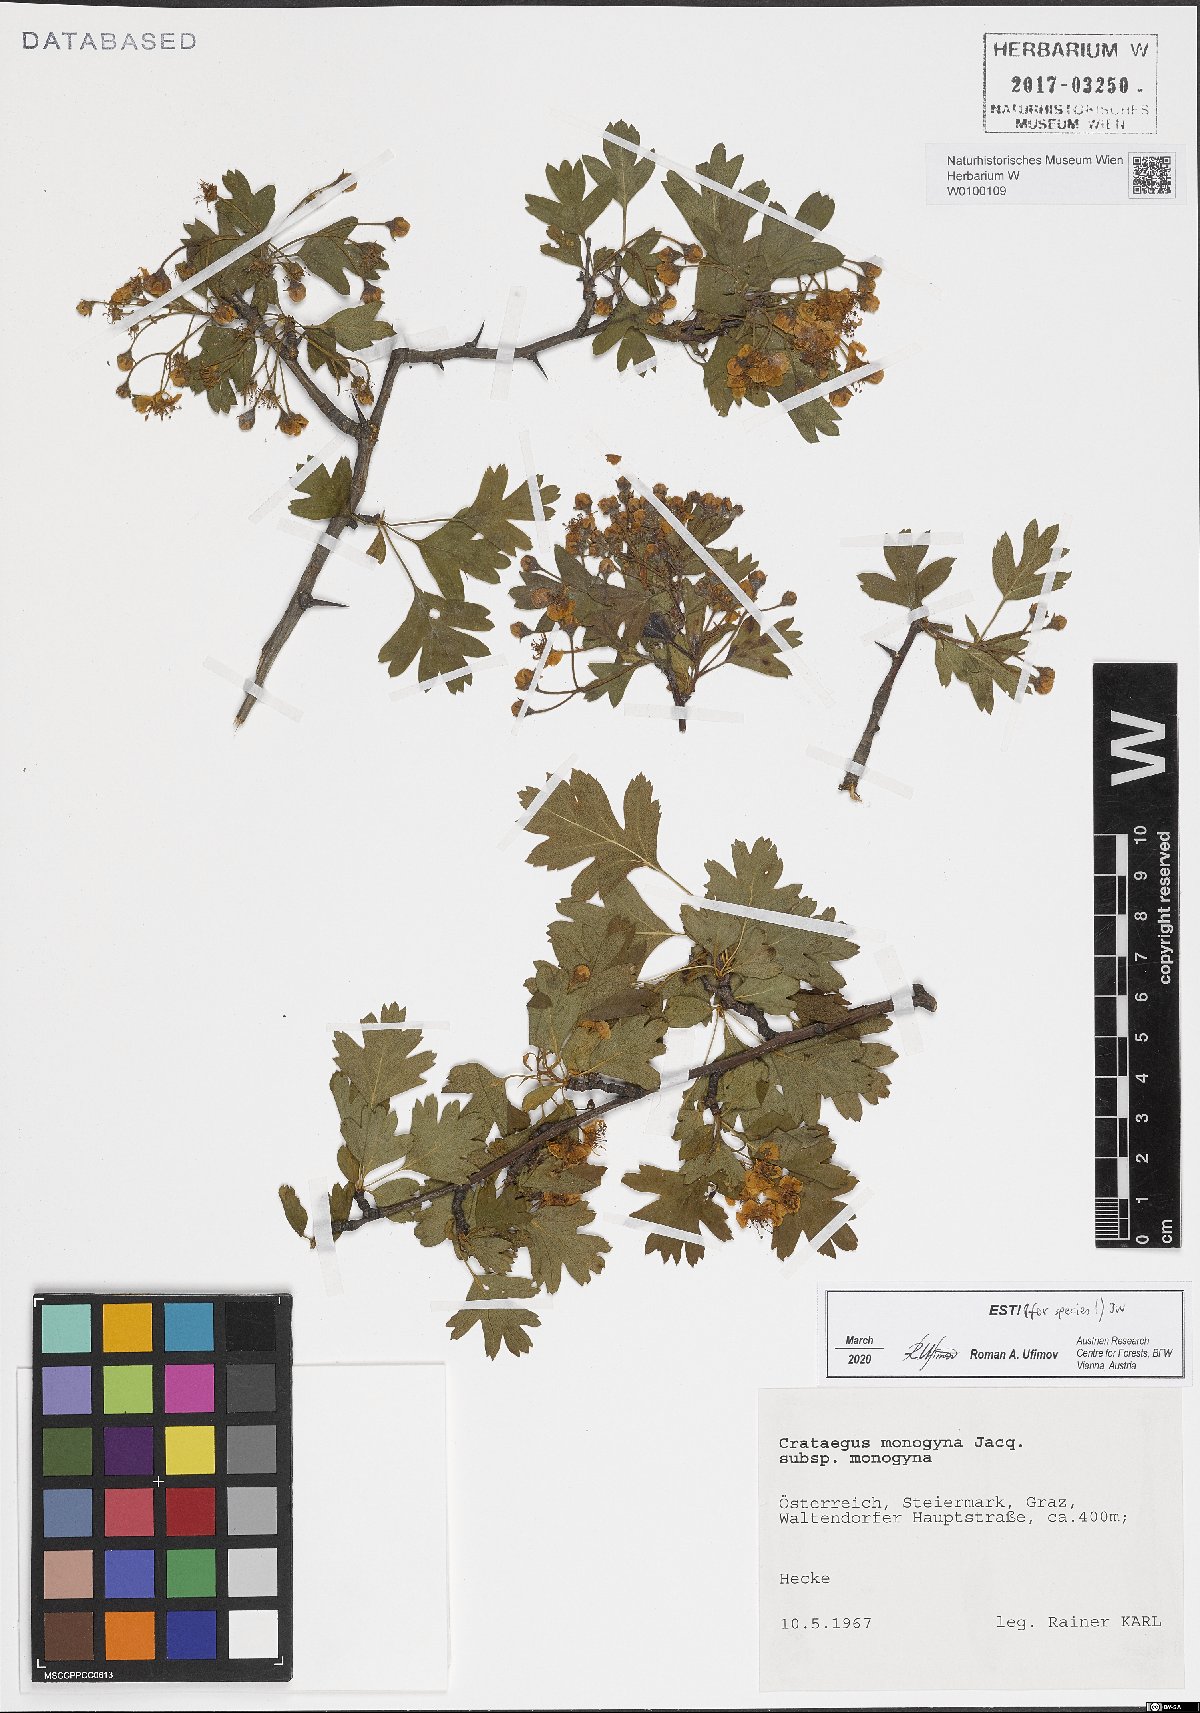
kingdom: Plantae
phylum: Tracheophyta
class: Magnoliopsida
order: Rosales
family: Rosaceae
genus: Crataegus
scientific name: Crataegus monogyna
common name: Hawthorn
